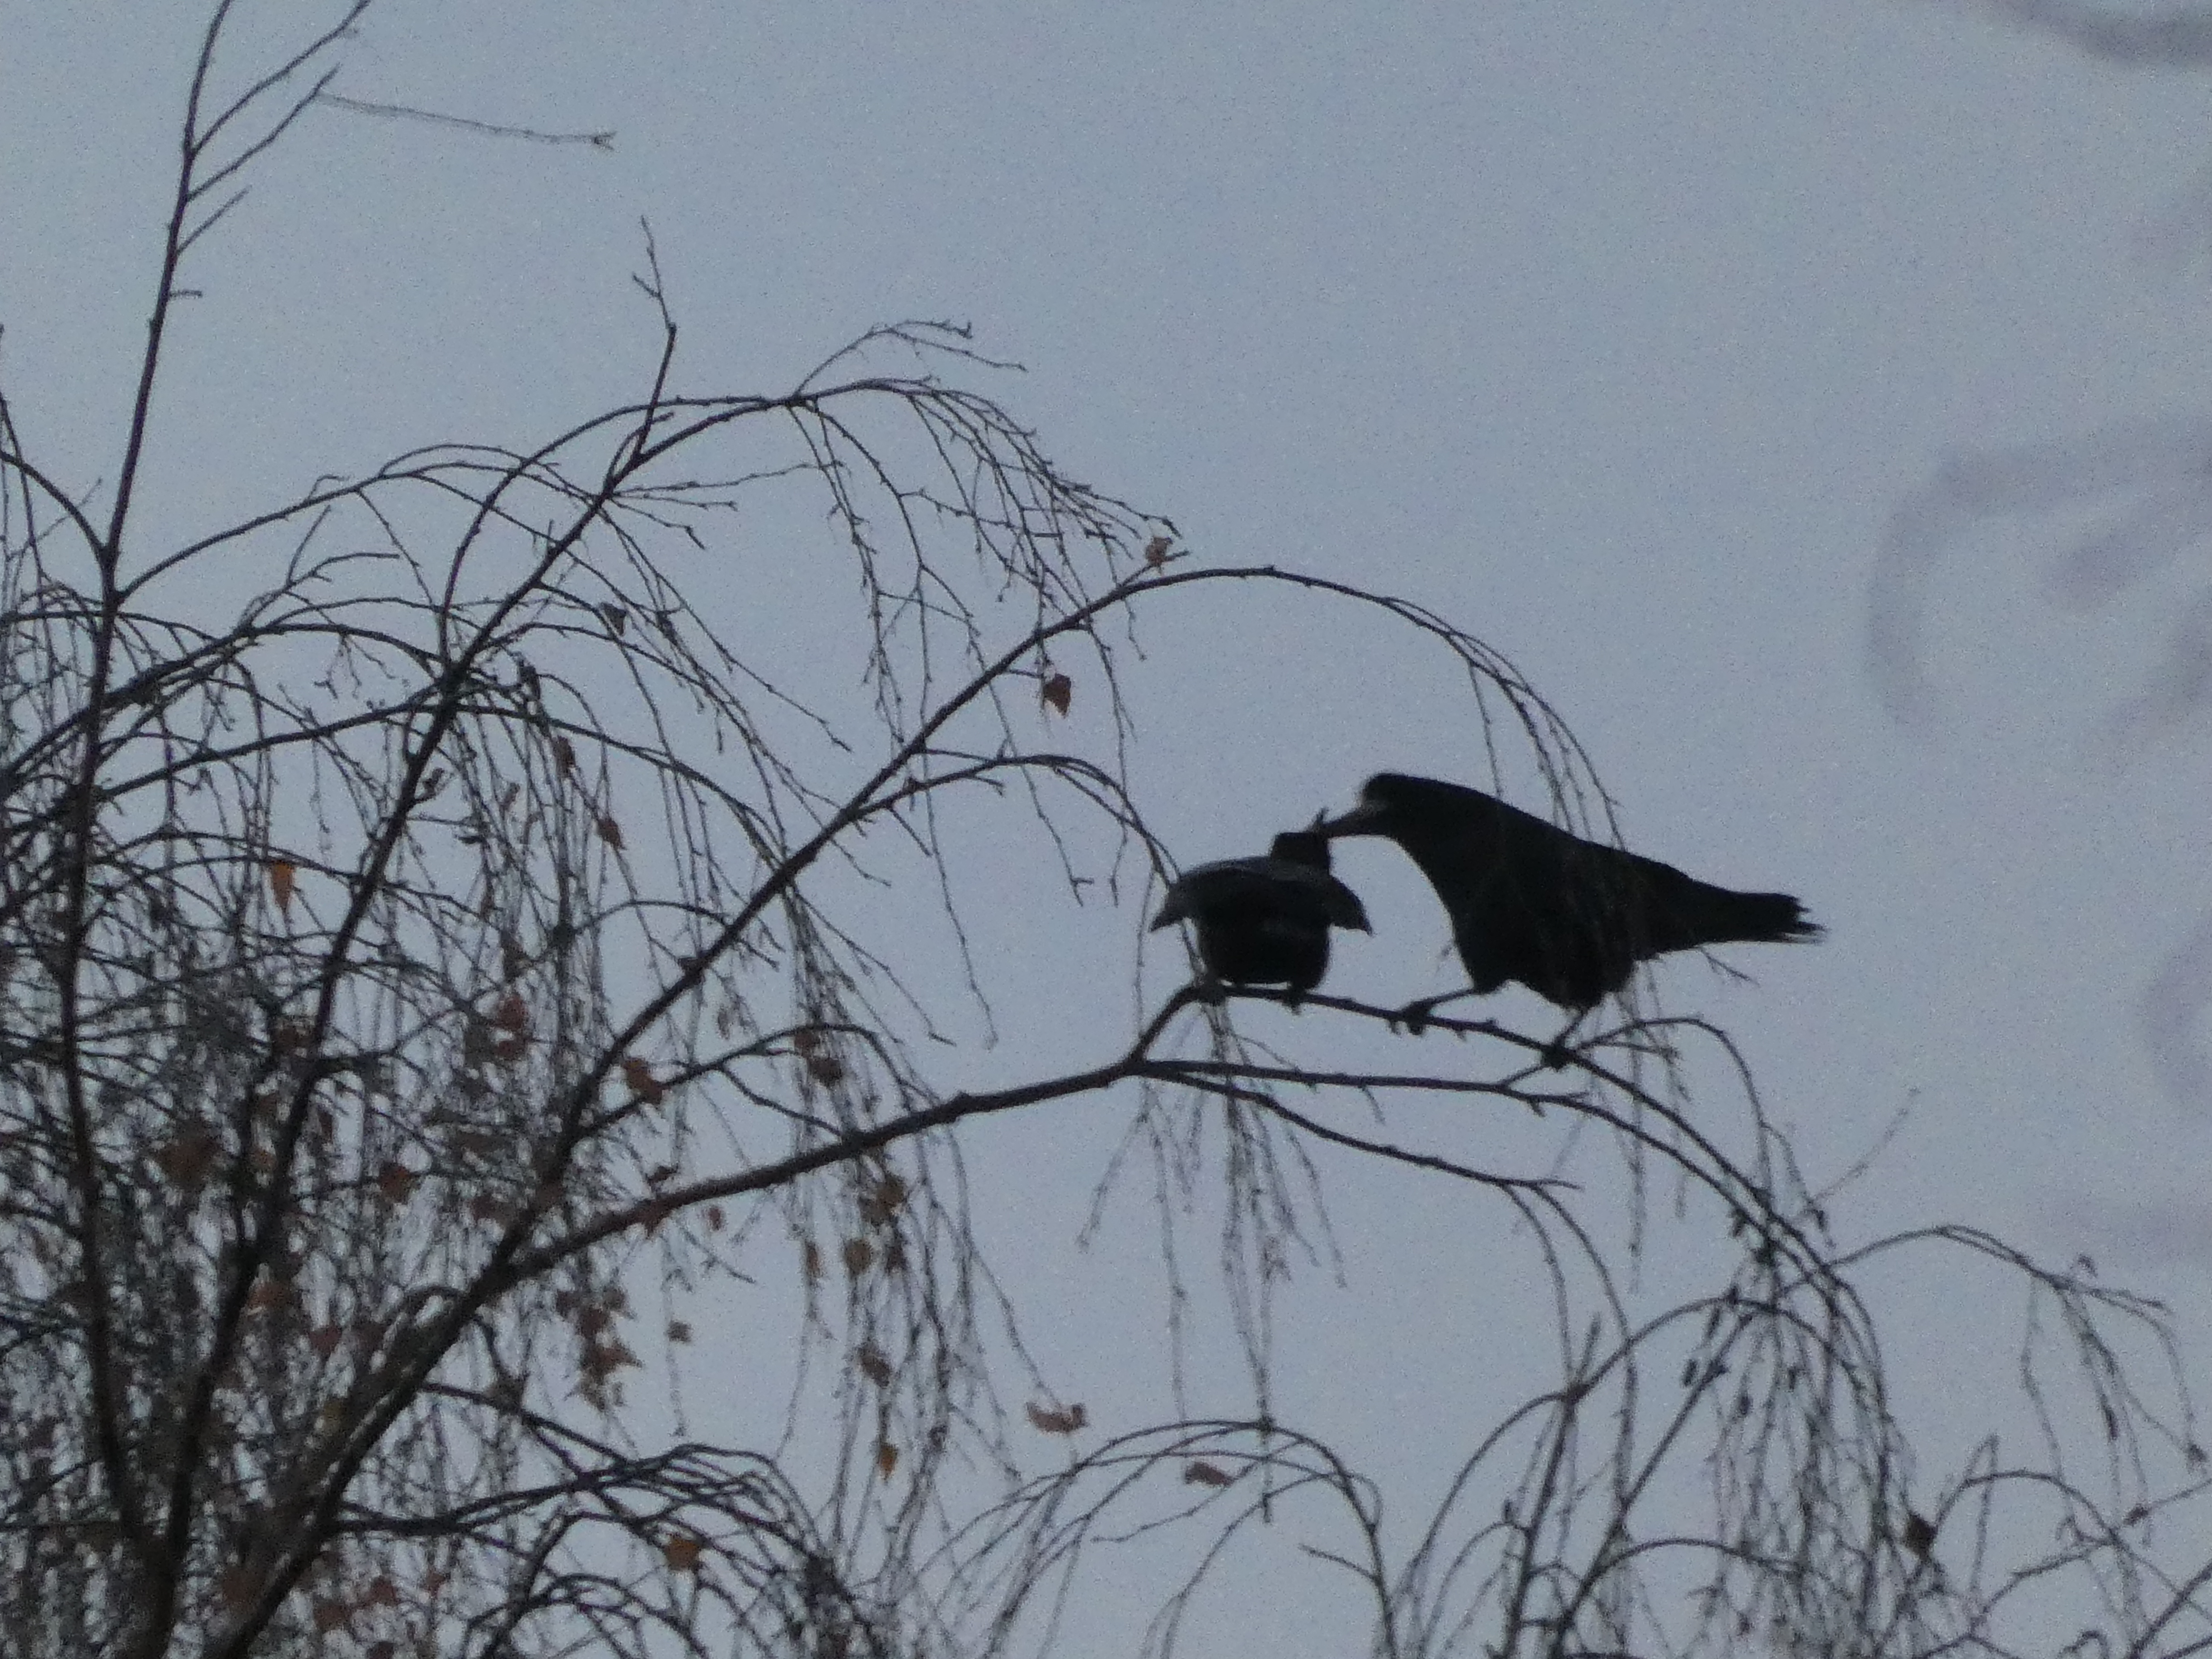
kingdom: Animalia
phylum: Chordata
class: Aves
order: Passeriformes
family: Corvidae
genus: Corvus
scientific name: Corvus frugilegus
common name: Råge
